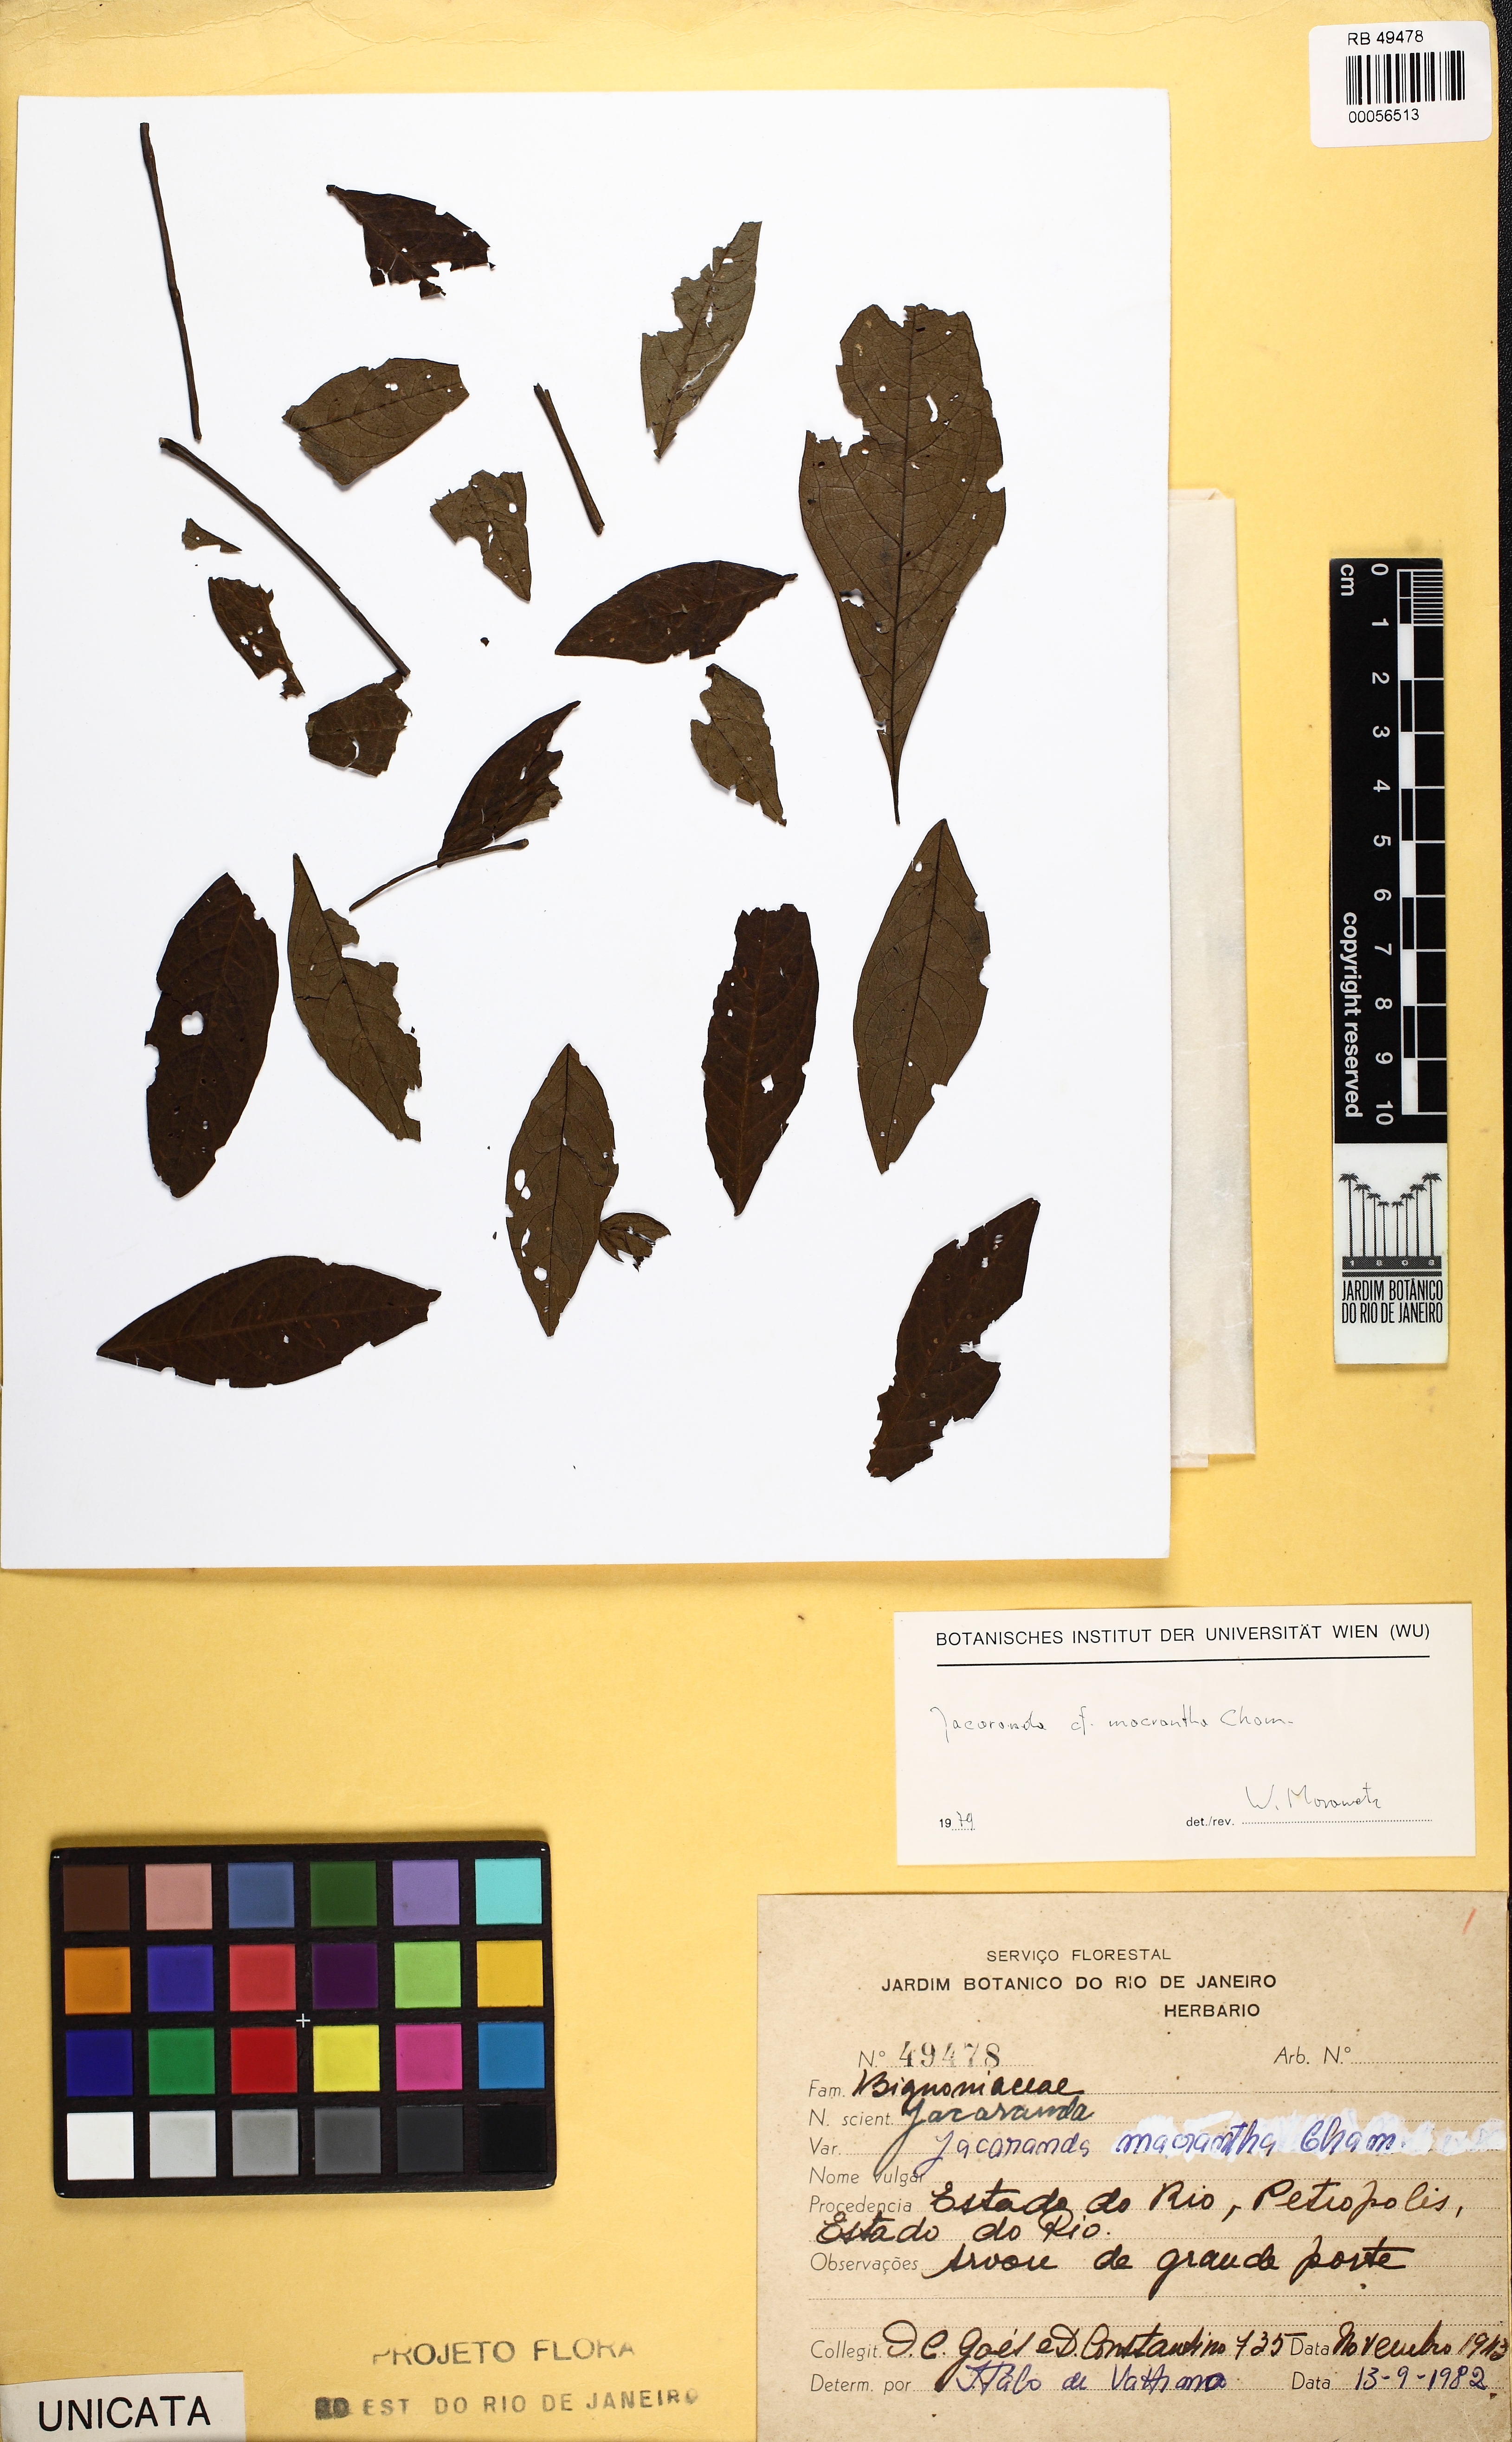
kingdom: Plantae
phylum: Tracheophyta
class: Magnoliopsida
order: Lamiales
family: Bignoniaceae
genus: Jacaranda
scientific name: Jacaranda macrantha
